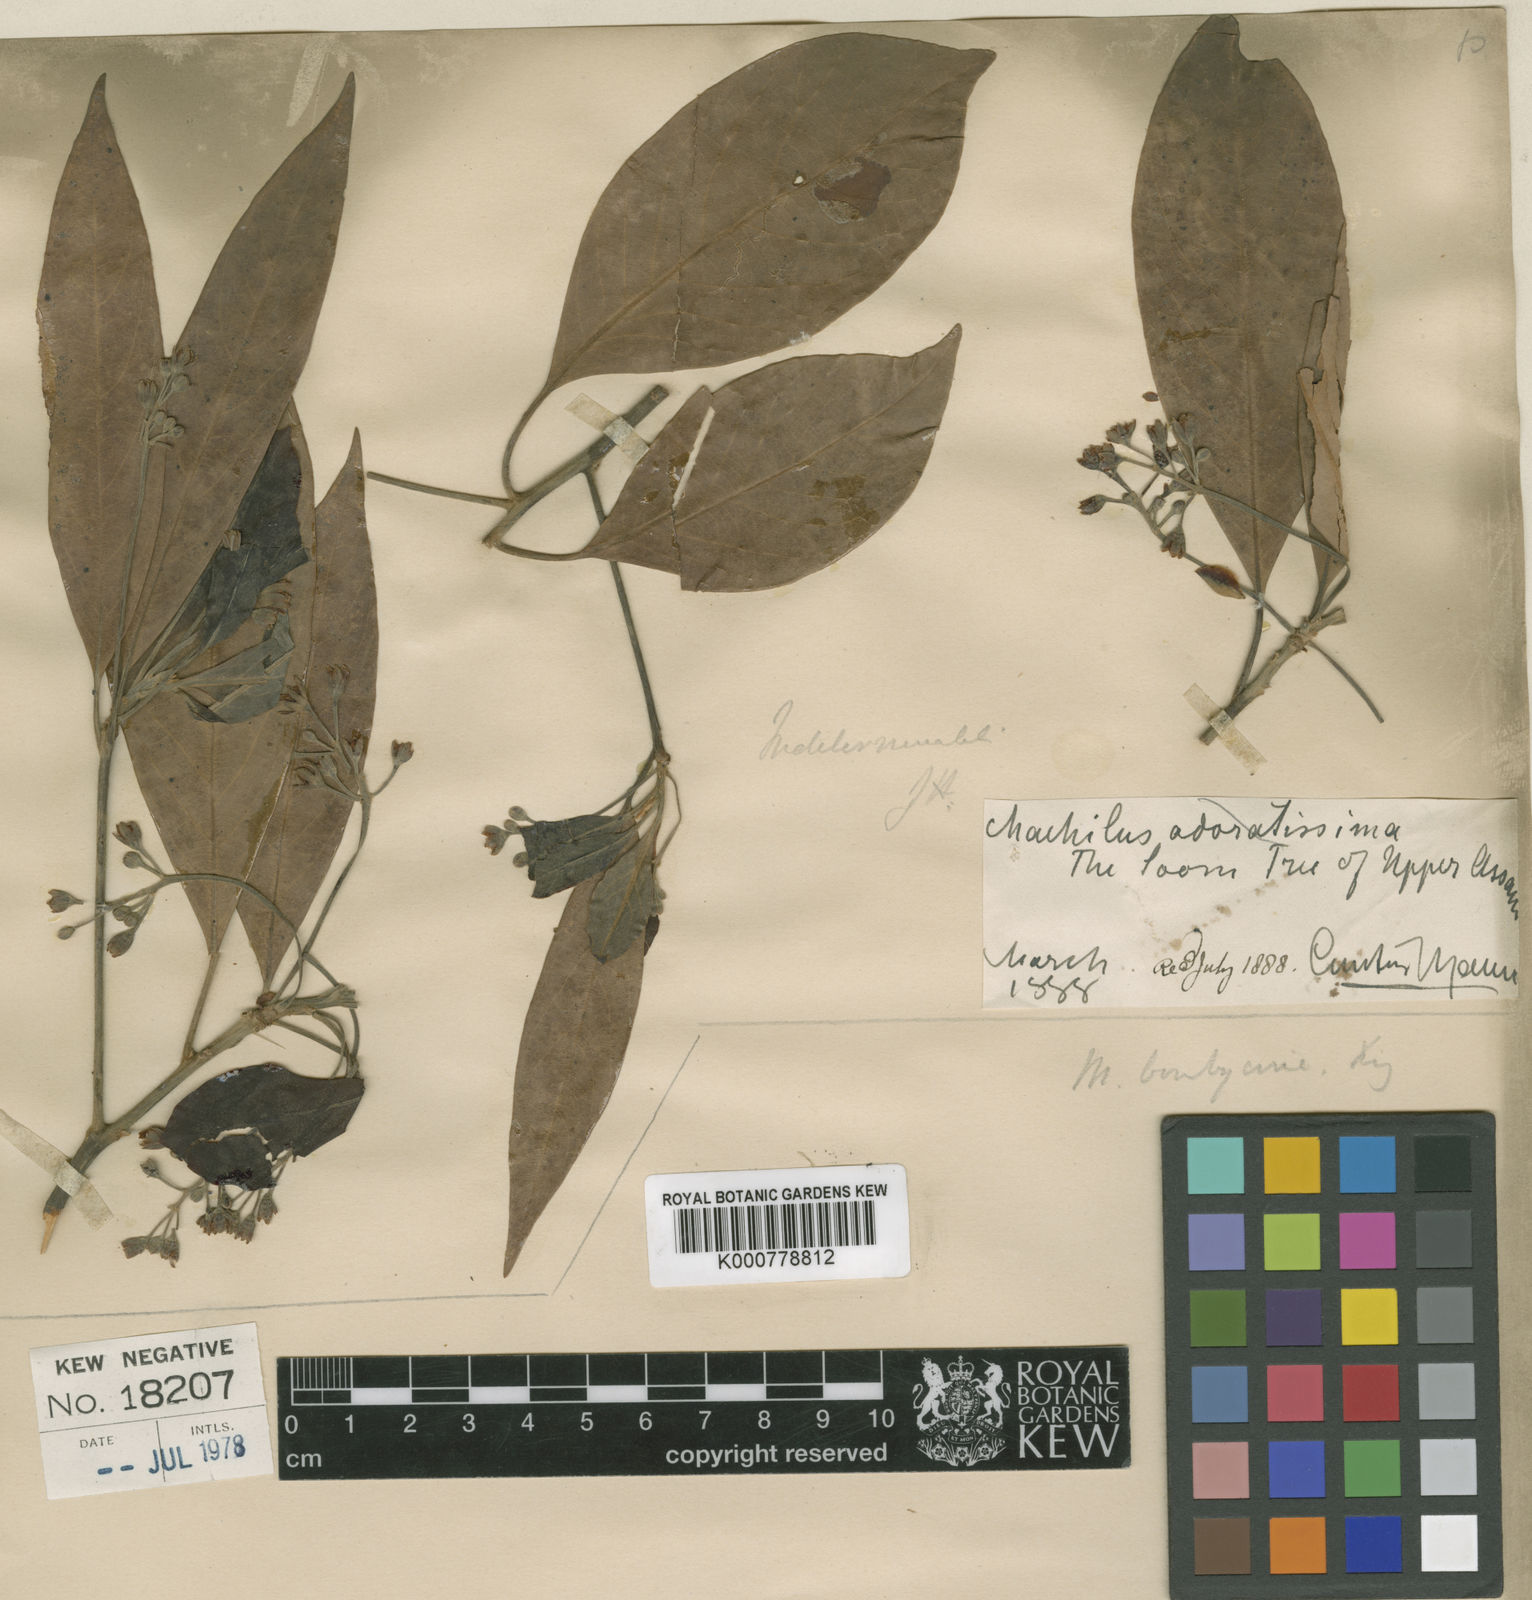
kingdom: Plantae
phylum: Tracheophyta
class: Magnoliopsida
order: Laurales
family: Lauraceae
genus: Machilus
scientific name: Machilus odoratissimus
